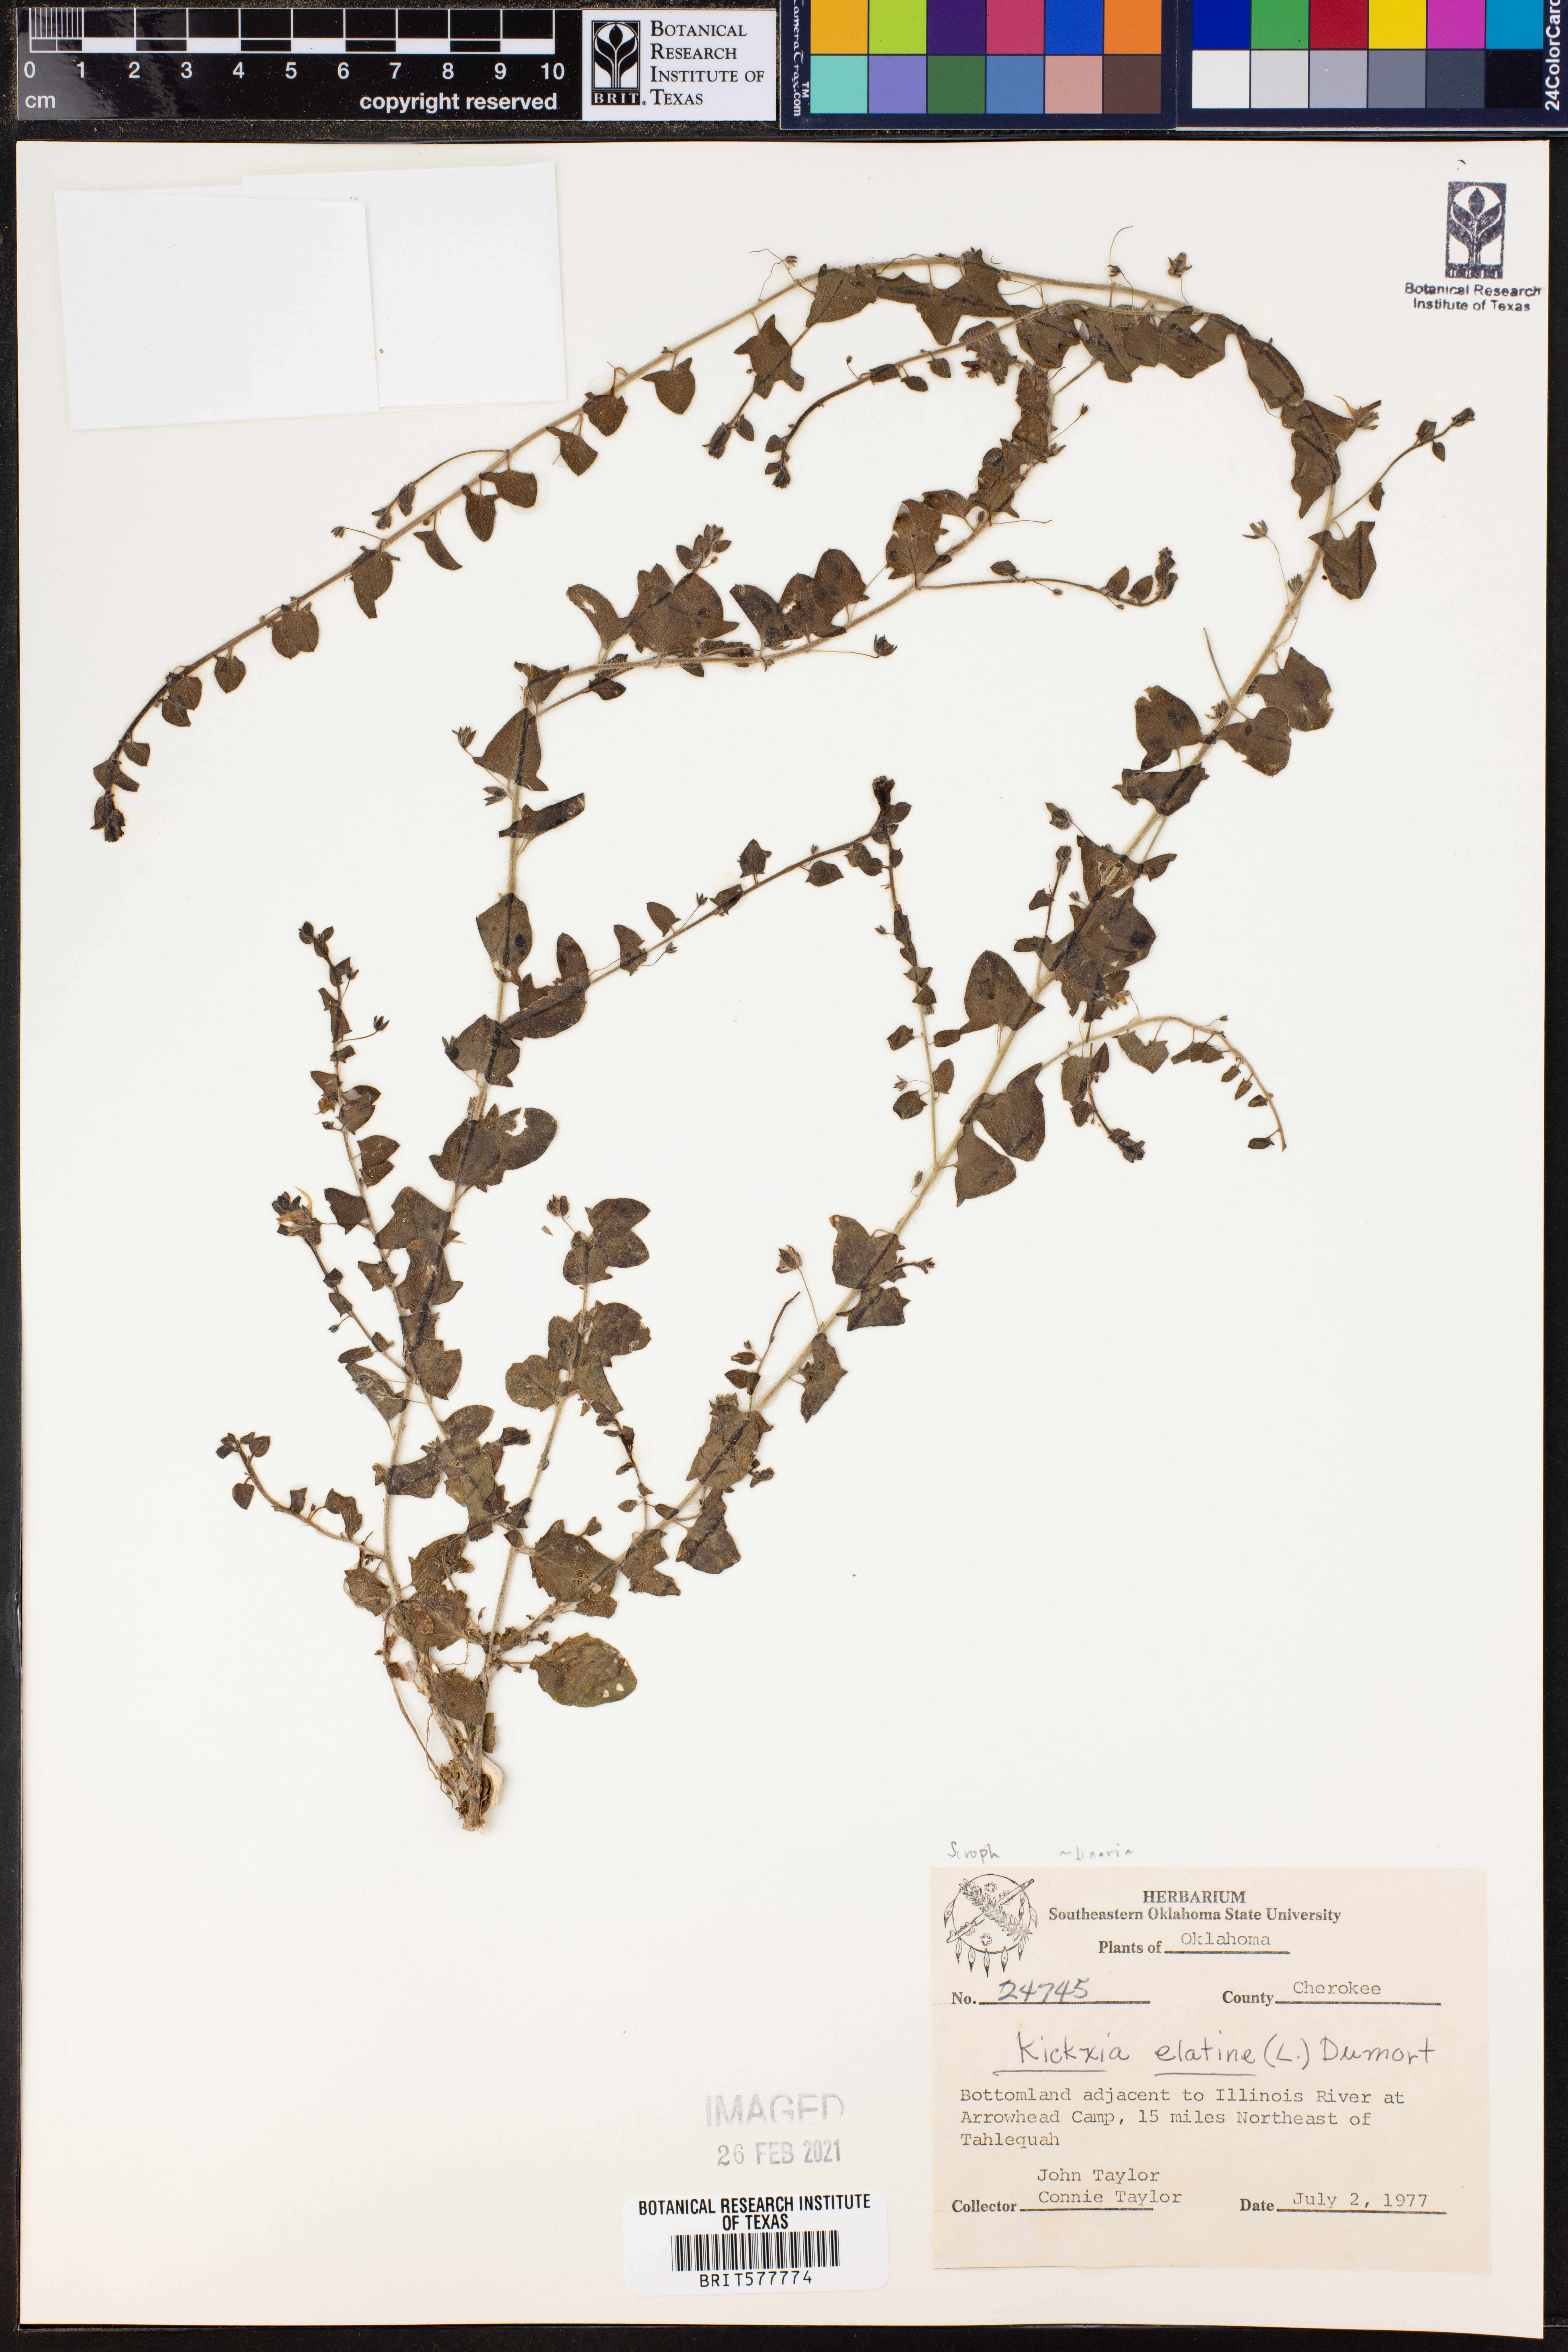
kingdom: Plantae
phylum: Tracheophyta
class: Magnoliopsida
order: Lamiales
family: Plantaginaceae
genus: Kickxia
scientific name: Kickxia elatine
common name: Sharp-leaved fluellen
